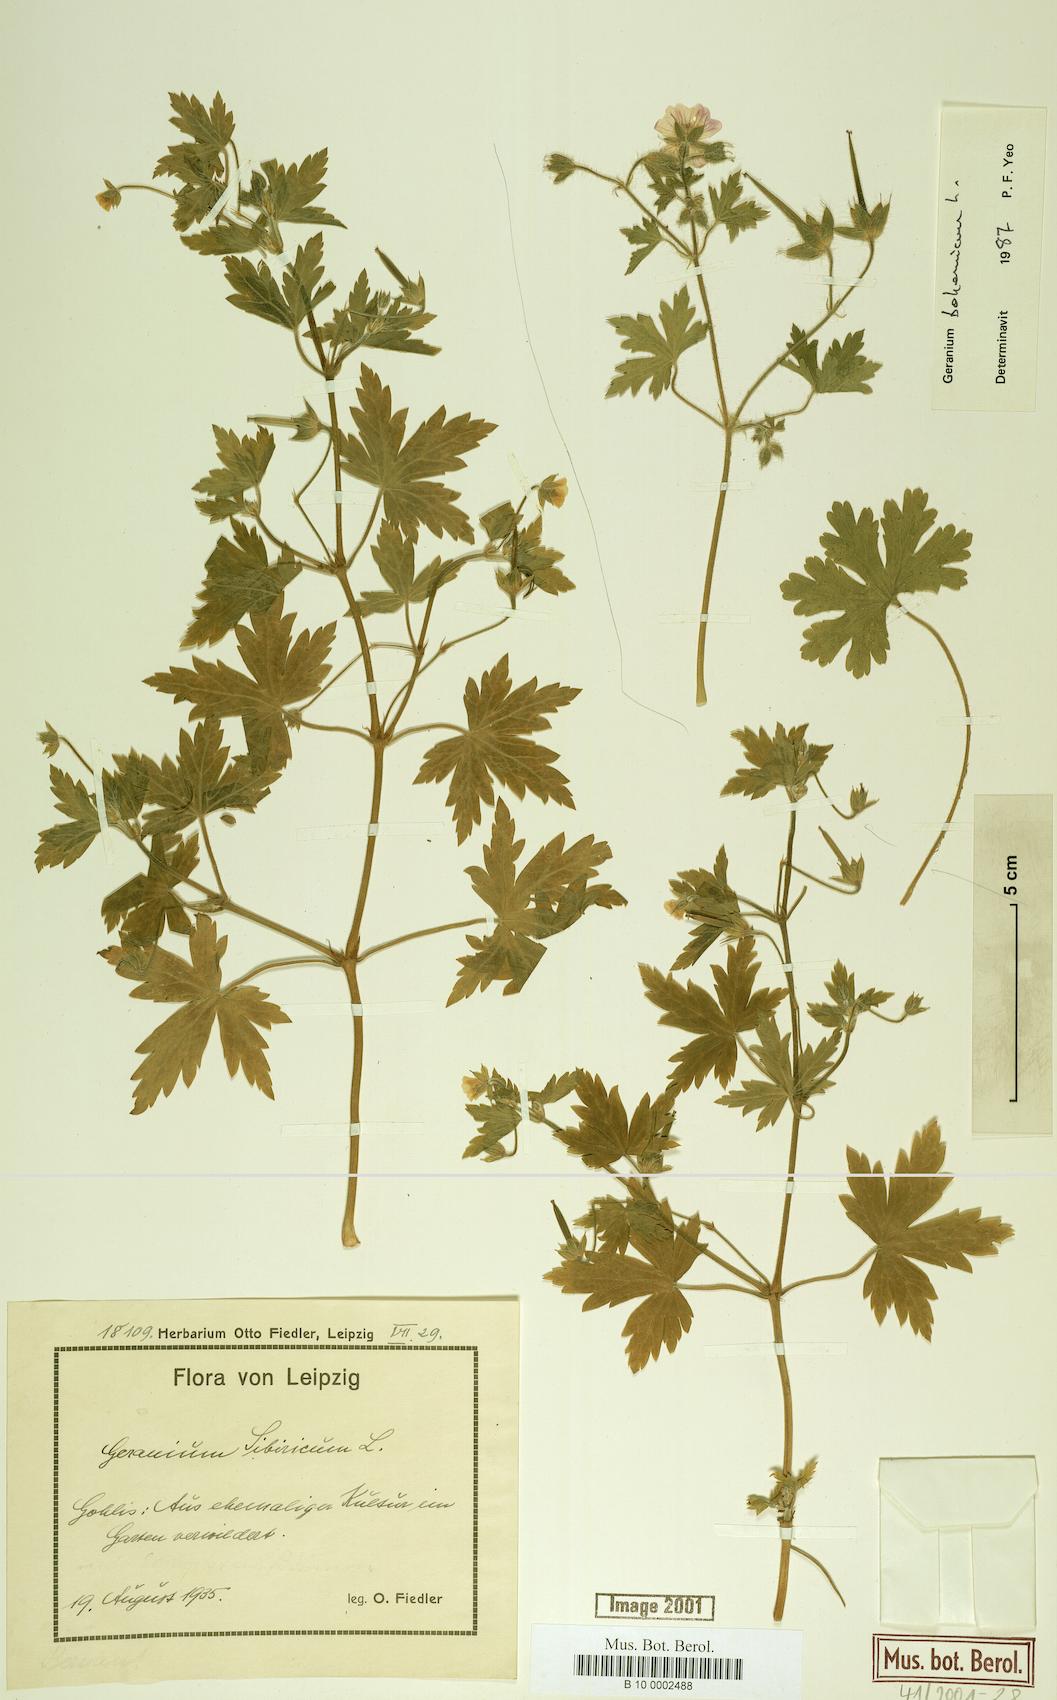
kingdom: Plantae
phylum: Tracheophyta
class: Magnoliopsida
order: Geraniales
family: Geraniaceae
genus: Geranium
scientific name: Geranium bohemicum
